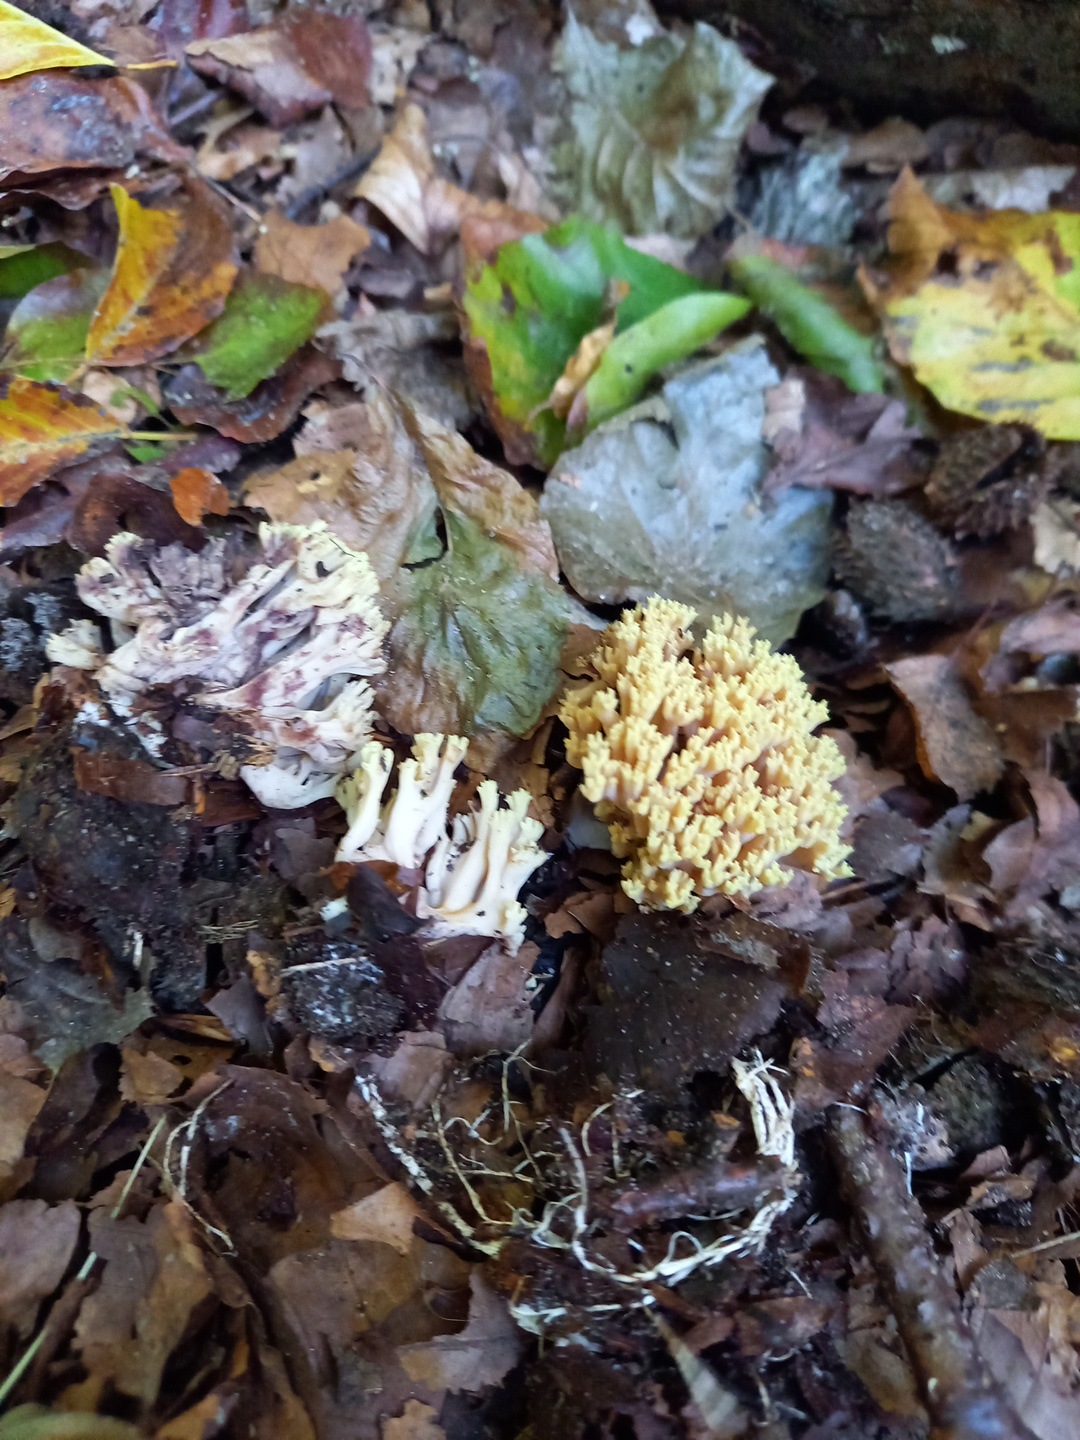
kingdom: Fungi
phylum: Basidiomycota
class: Agaricomycetes
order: Gomphales
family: Gomphaceae
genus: Ramaria
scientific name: Ramaria stricta
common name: rank koralsvamp
